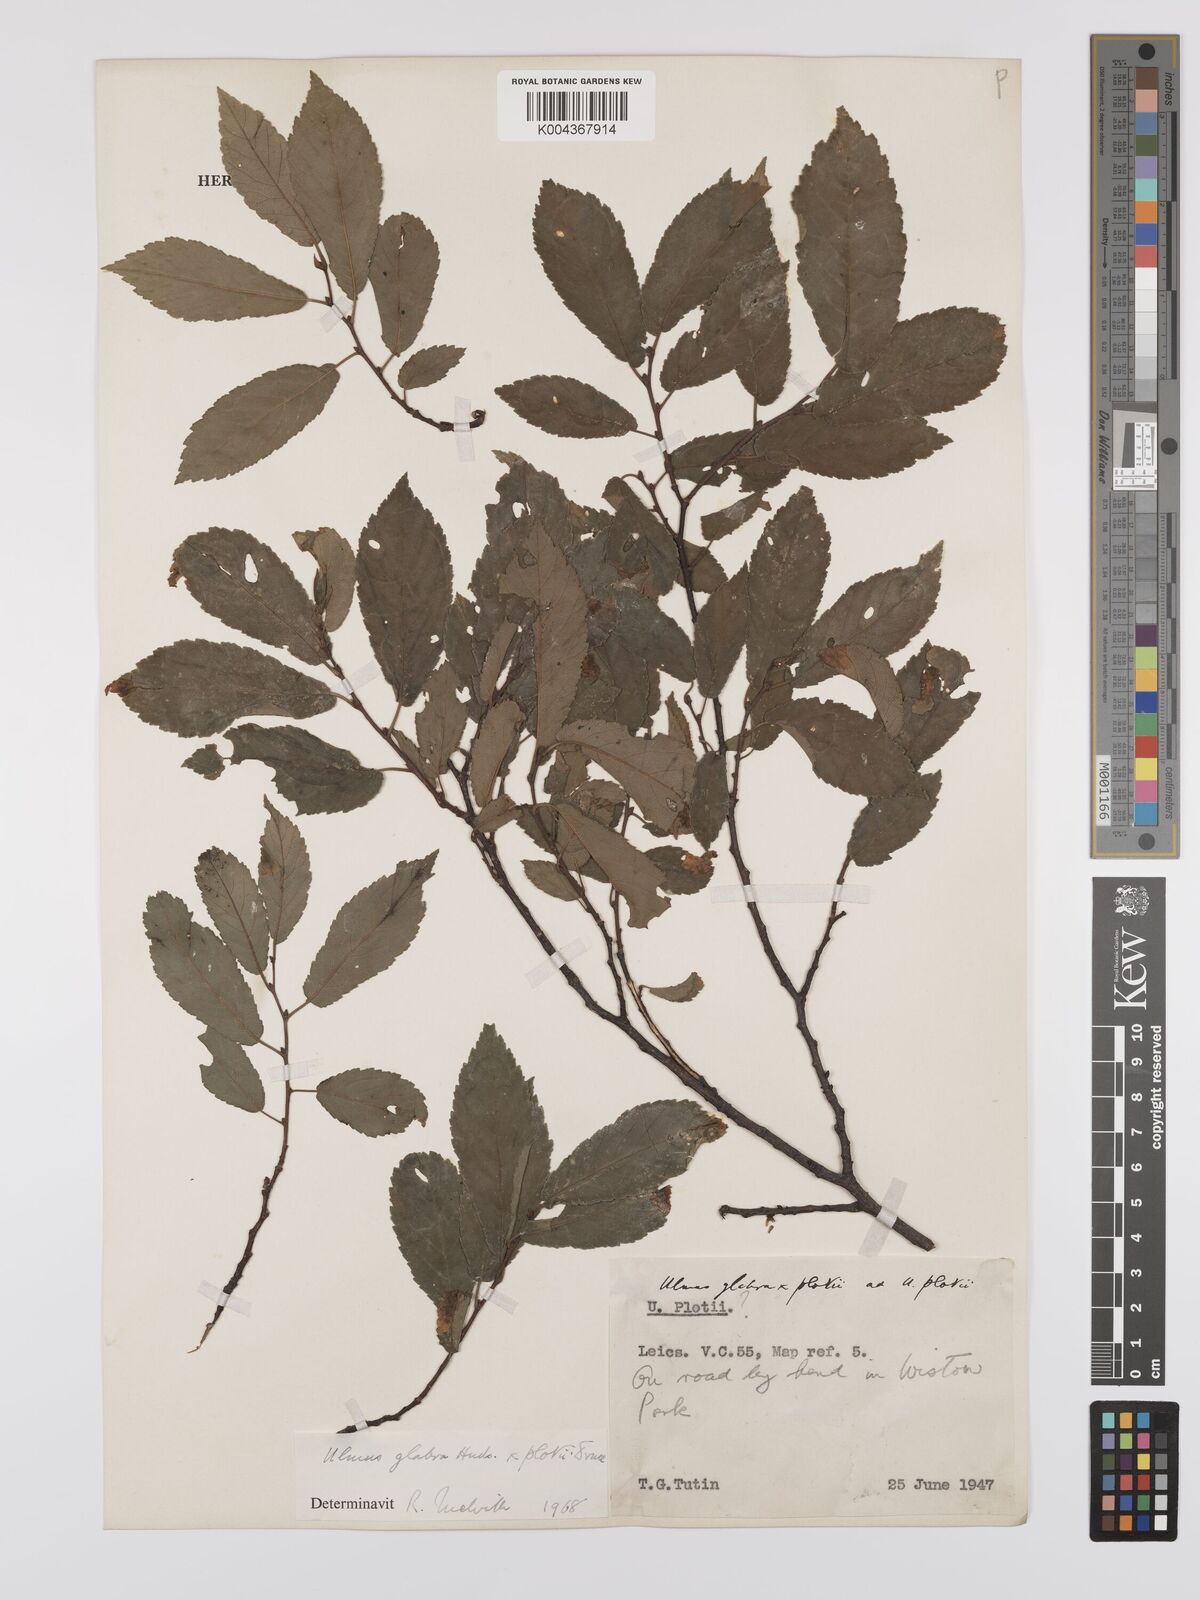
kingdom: Plantae
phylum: Tracheophyta
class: Magnoliopsida
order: Rosales
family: Ulmaceae
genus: Ulmus
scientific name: Ulmus
